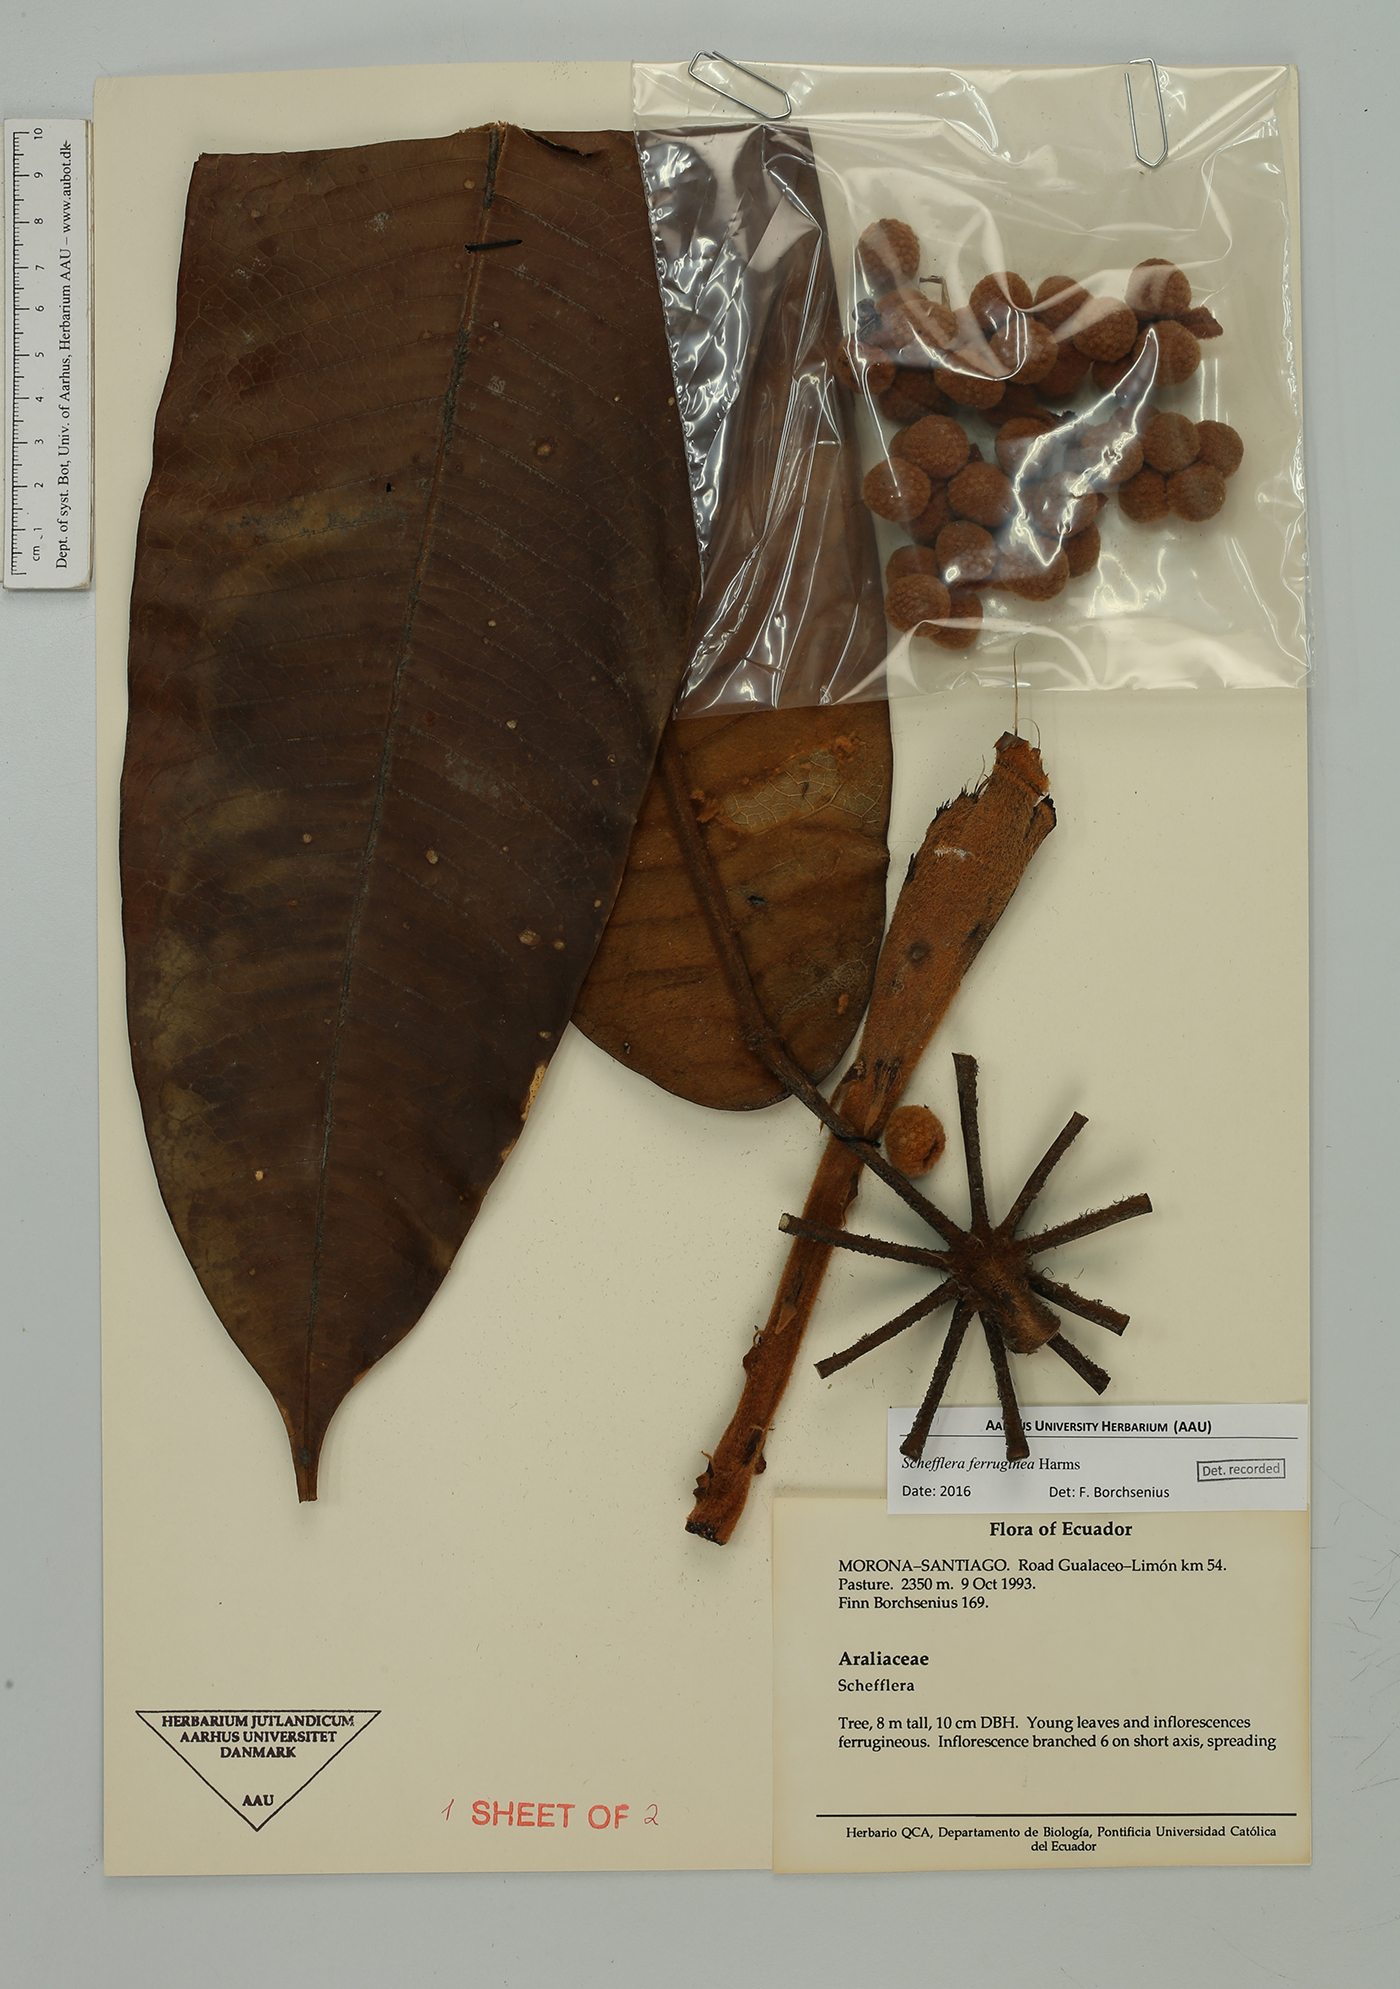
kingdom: Plantae
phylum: Tracheophyta
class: Magnoliopsida
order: Apiales
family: Araliaceae
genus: Schefflera
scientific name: Schefflera
